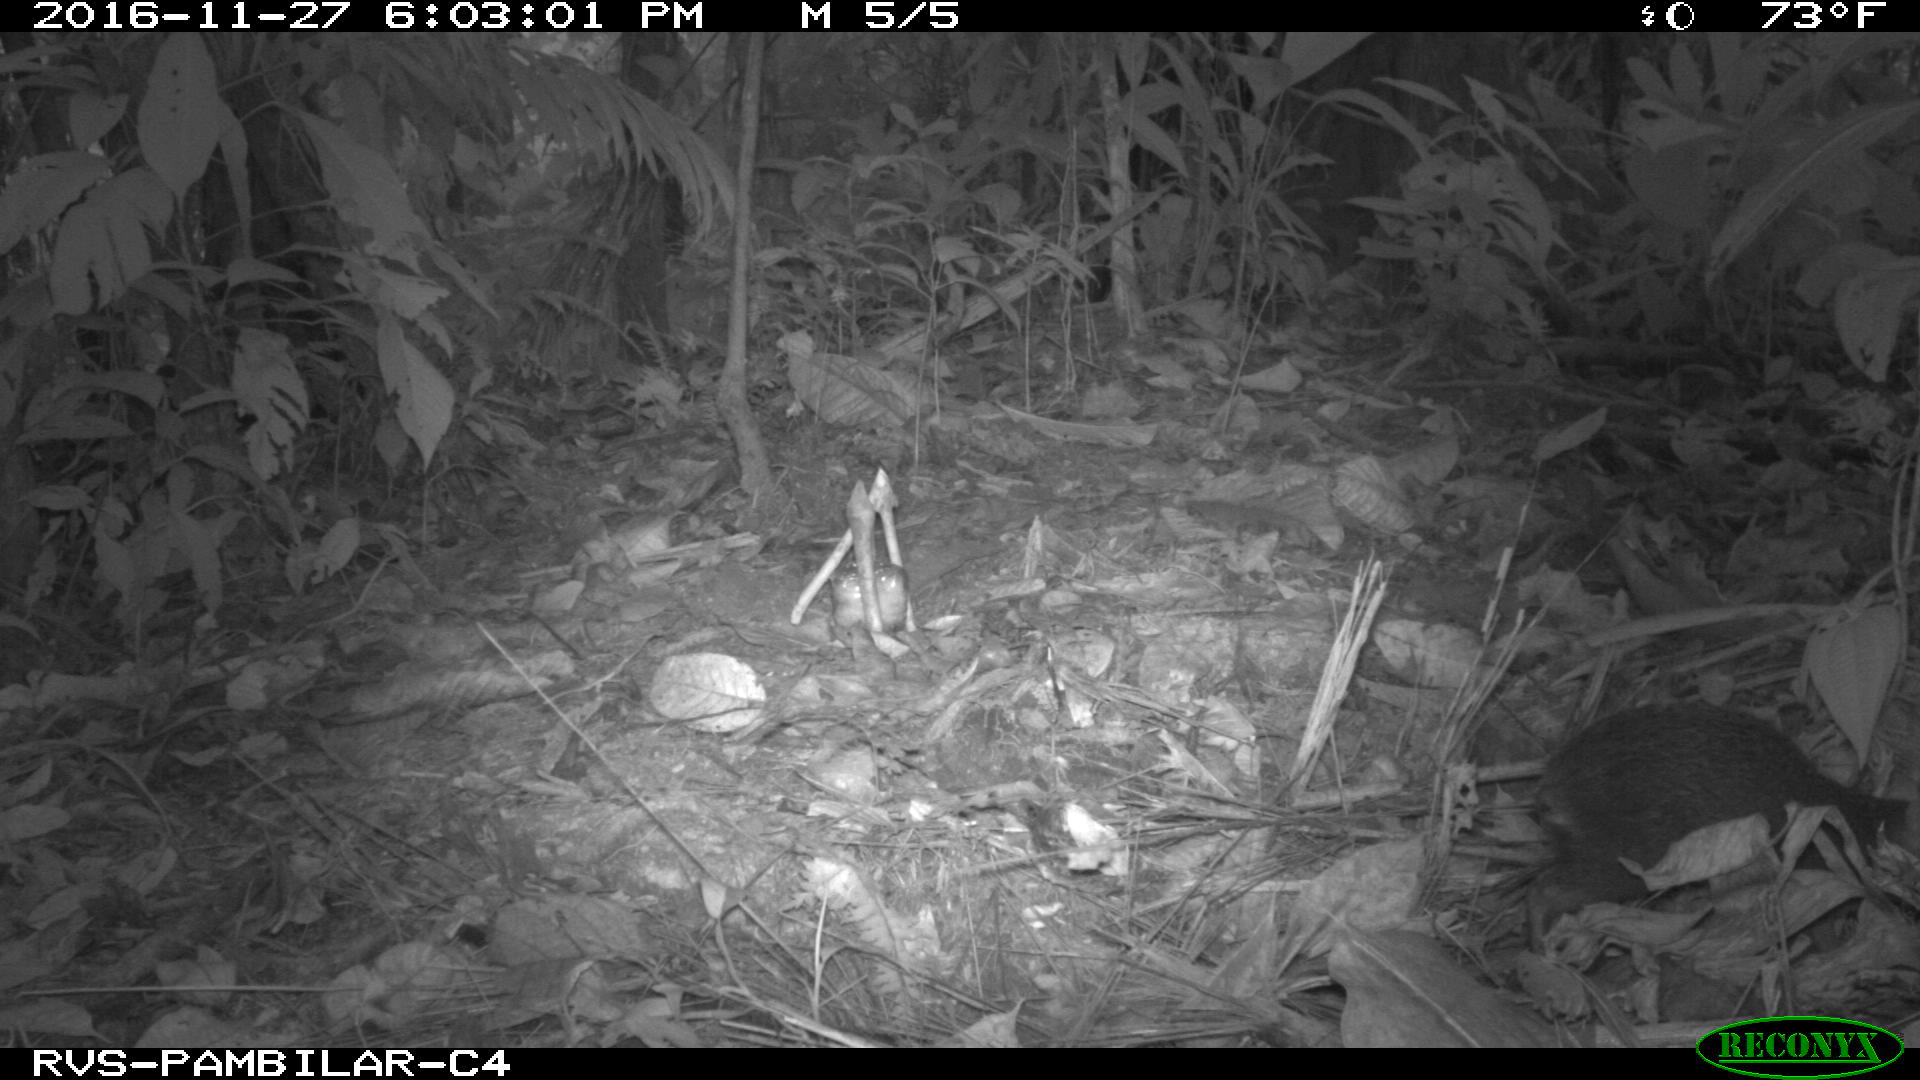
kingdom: Animalia
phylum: Chordata
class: Mammalia
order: Rodentia
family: Dasyproctidae
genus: Dasyprocta
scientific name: Dasyprocta punctata
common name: Central american agouti
